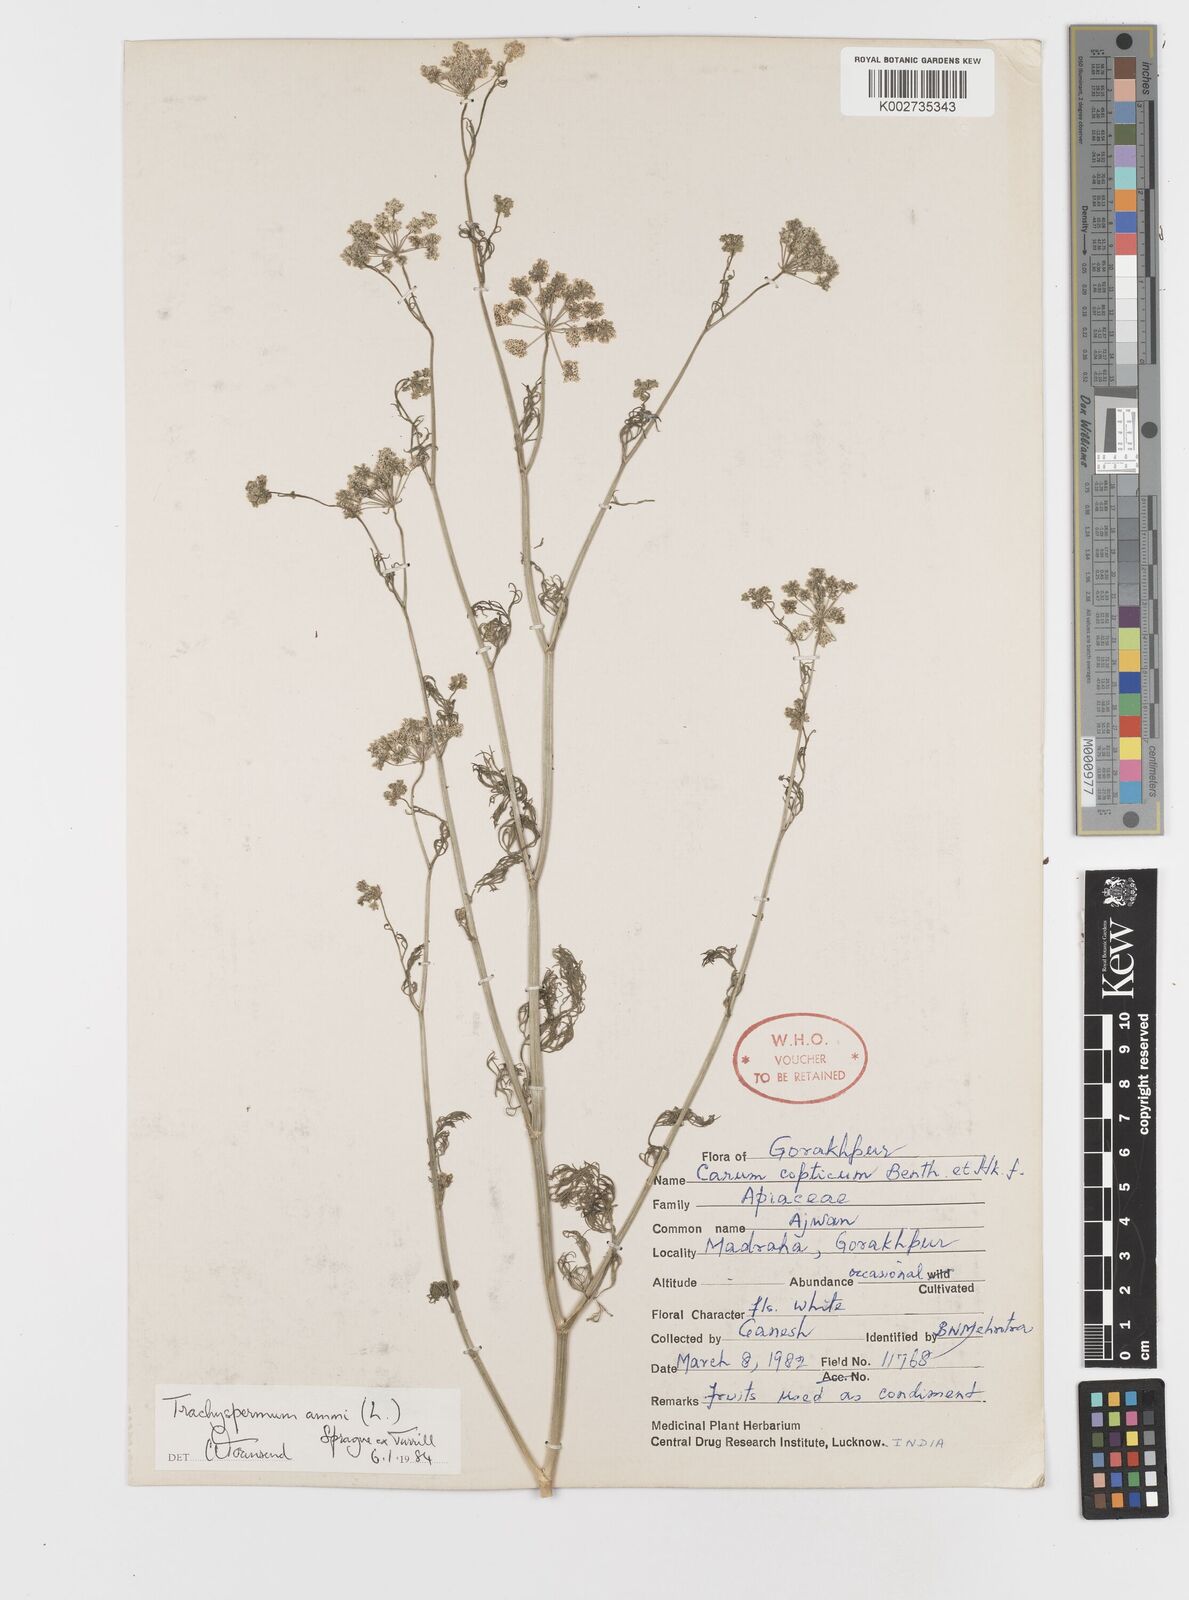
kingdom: Plantae
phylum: Tracheophyta
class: Magnoliopsida
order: Apiales
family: Apiaceae
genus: Psammogeton
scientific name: Psammogeton involucratum
